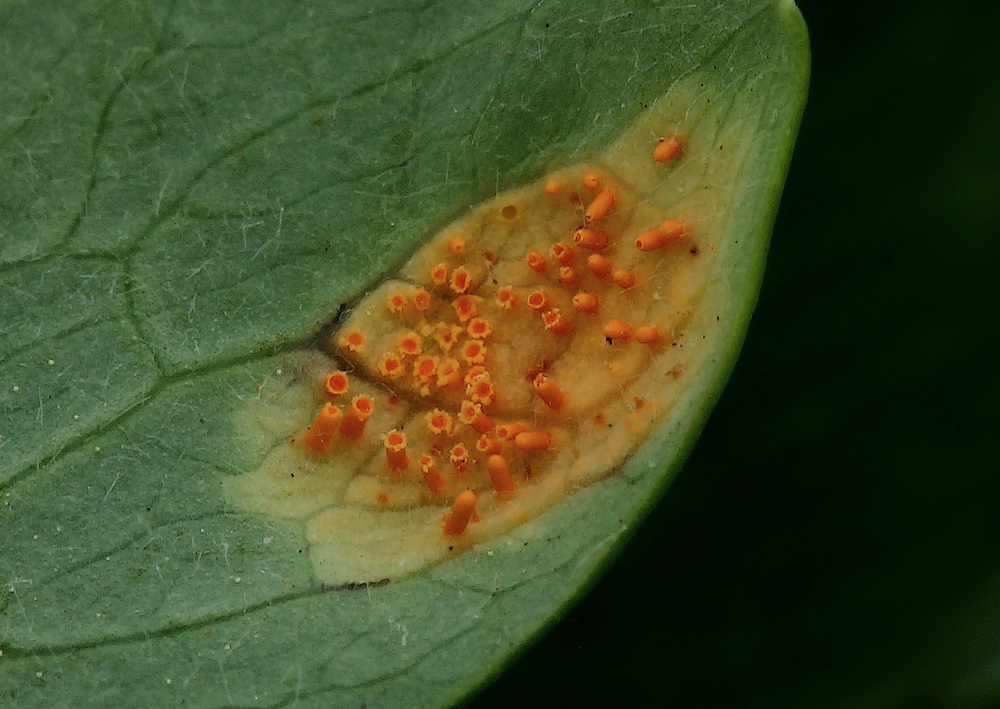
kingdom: Fungi
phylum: Basidiomycota
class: Pucciniomycetes
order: Pucciniales
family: Pucciniaceae
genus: Puccinia
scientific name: Puccinia recondita
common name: Brown rust of wheat
